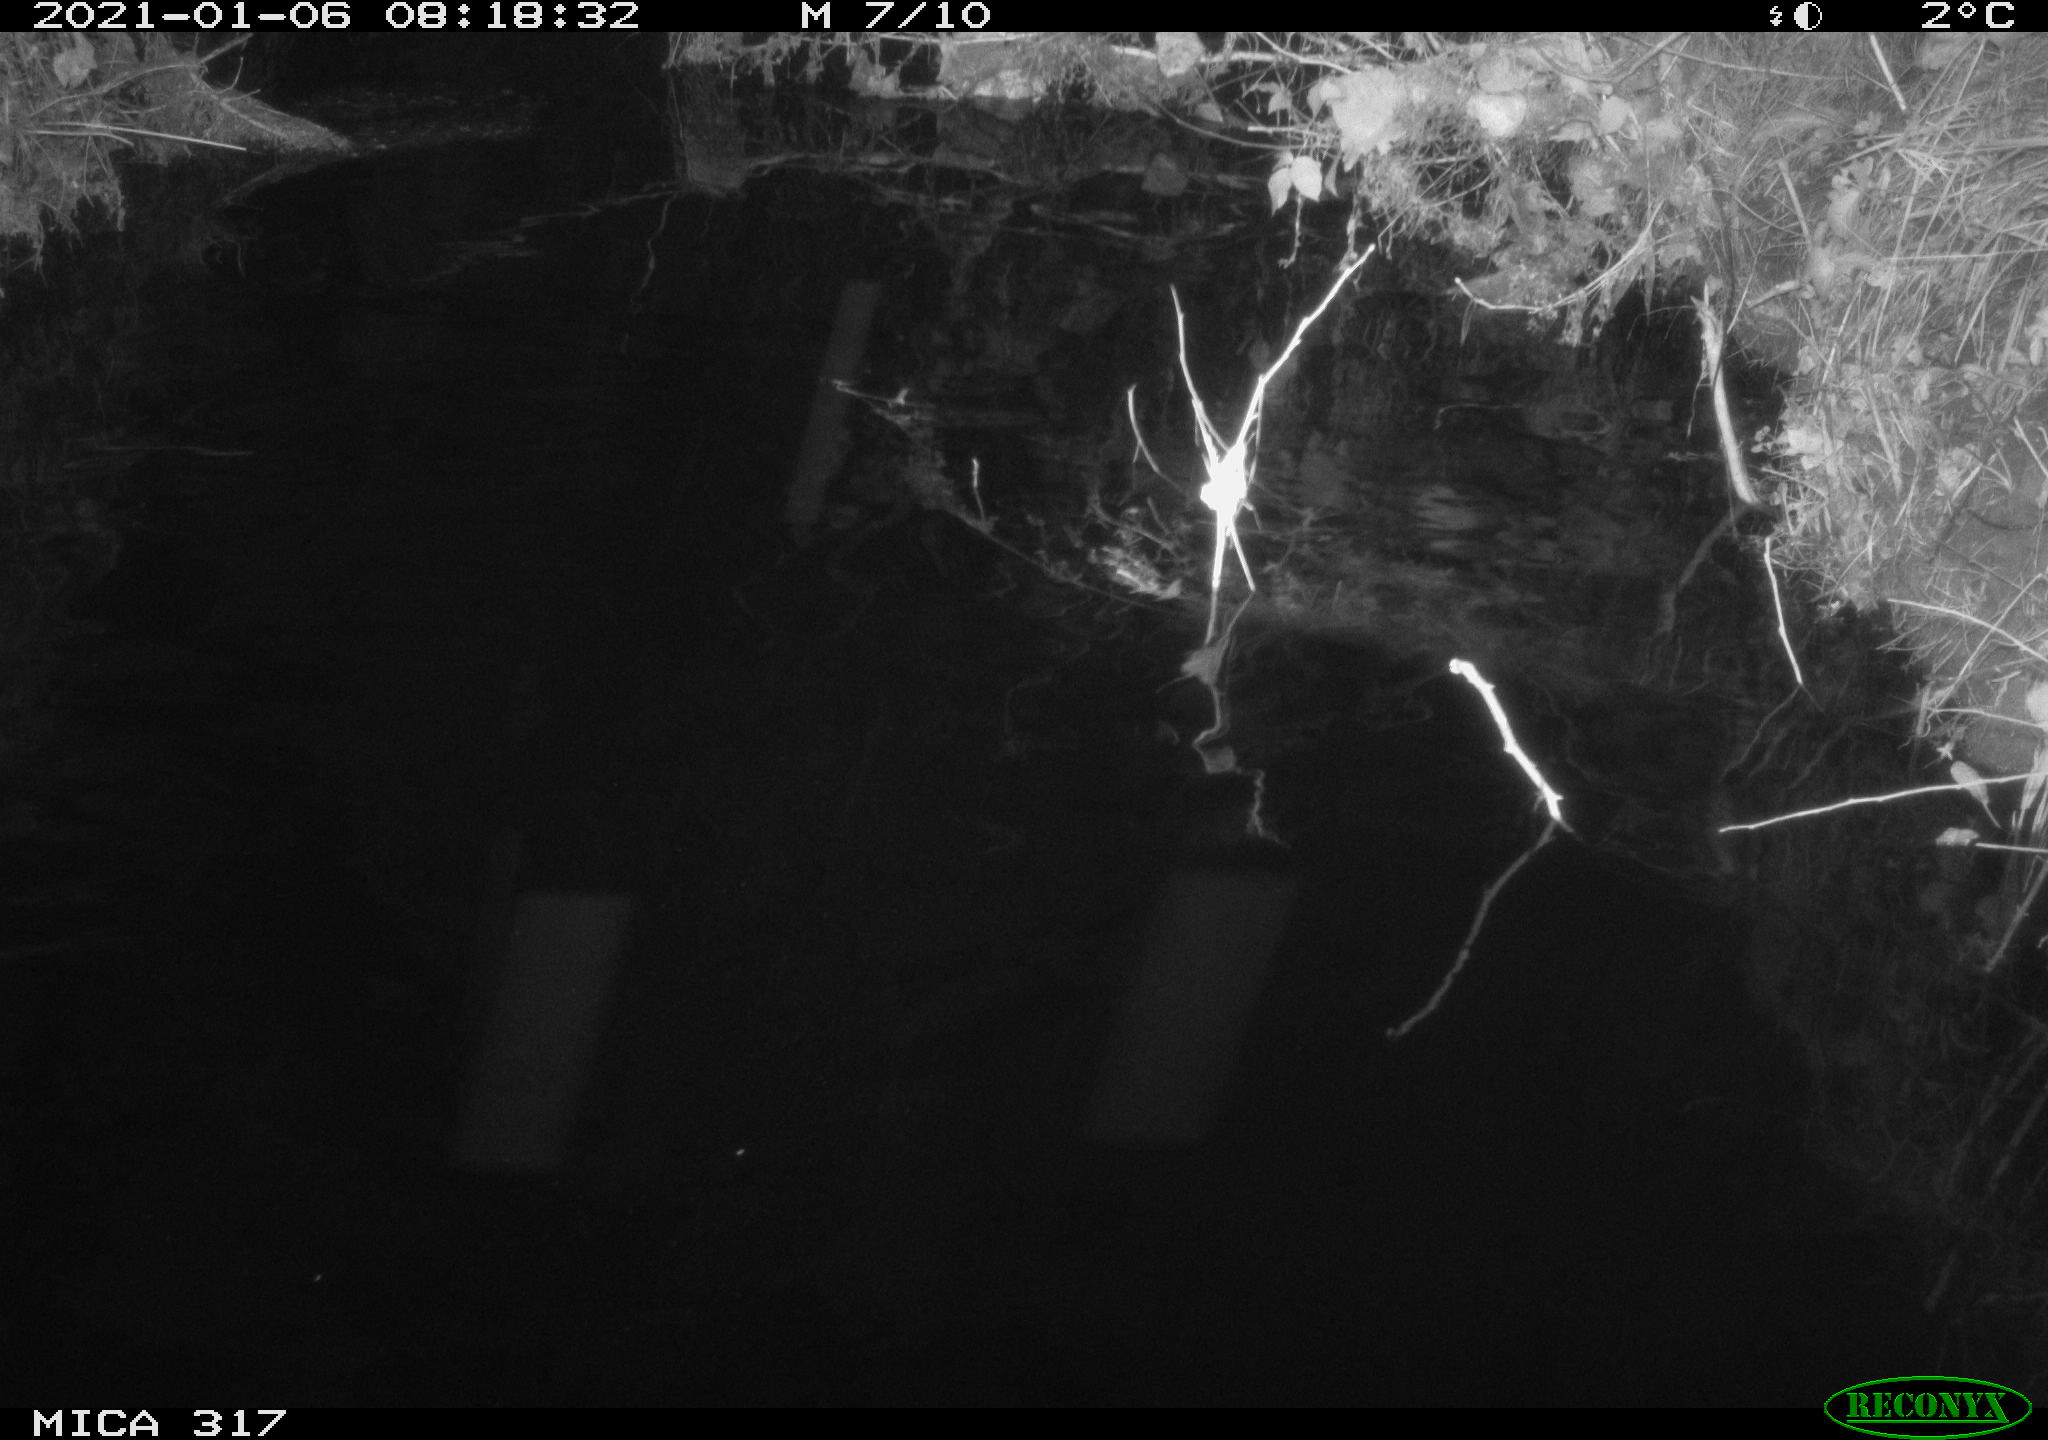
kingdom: Animalia
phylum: Chordata
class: Aves
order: Gruiformes
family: Rallidae
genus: Fulica
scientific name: Fulica atra
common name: Eurasian coot
